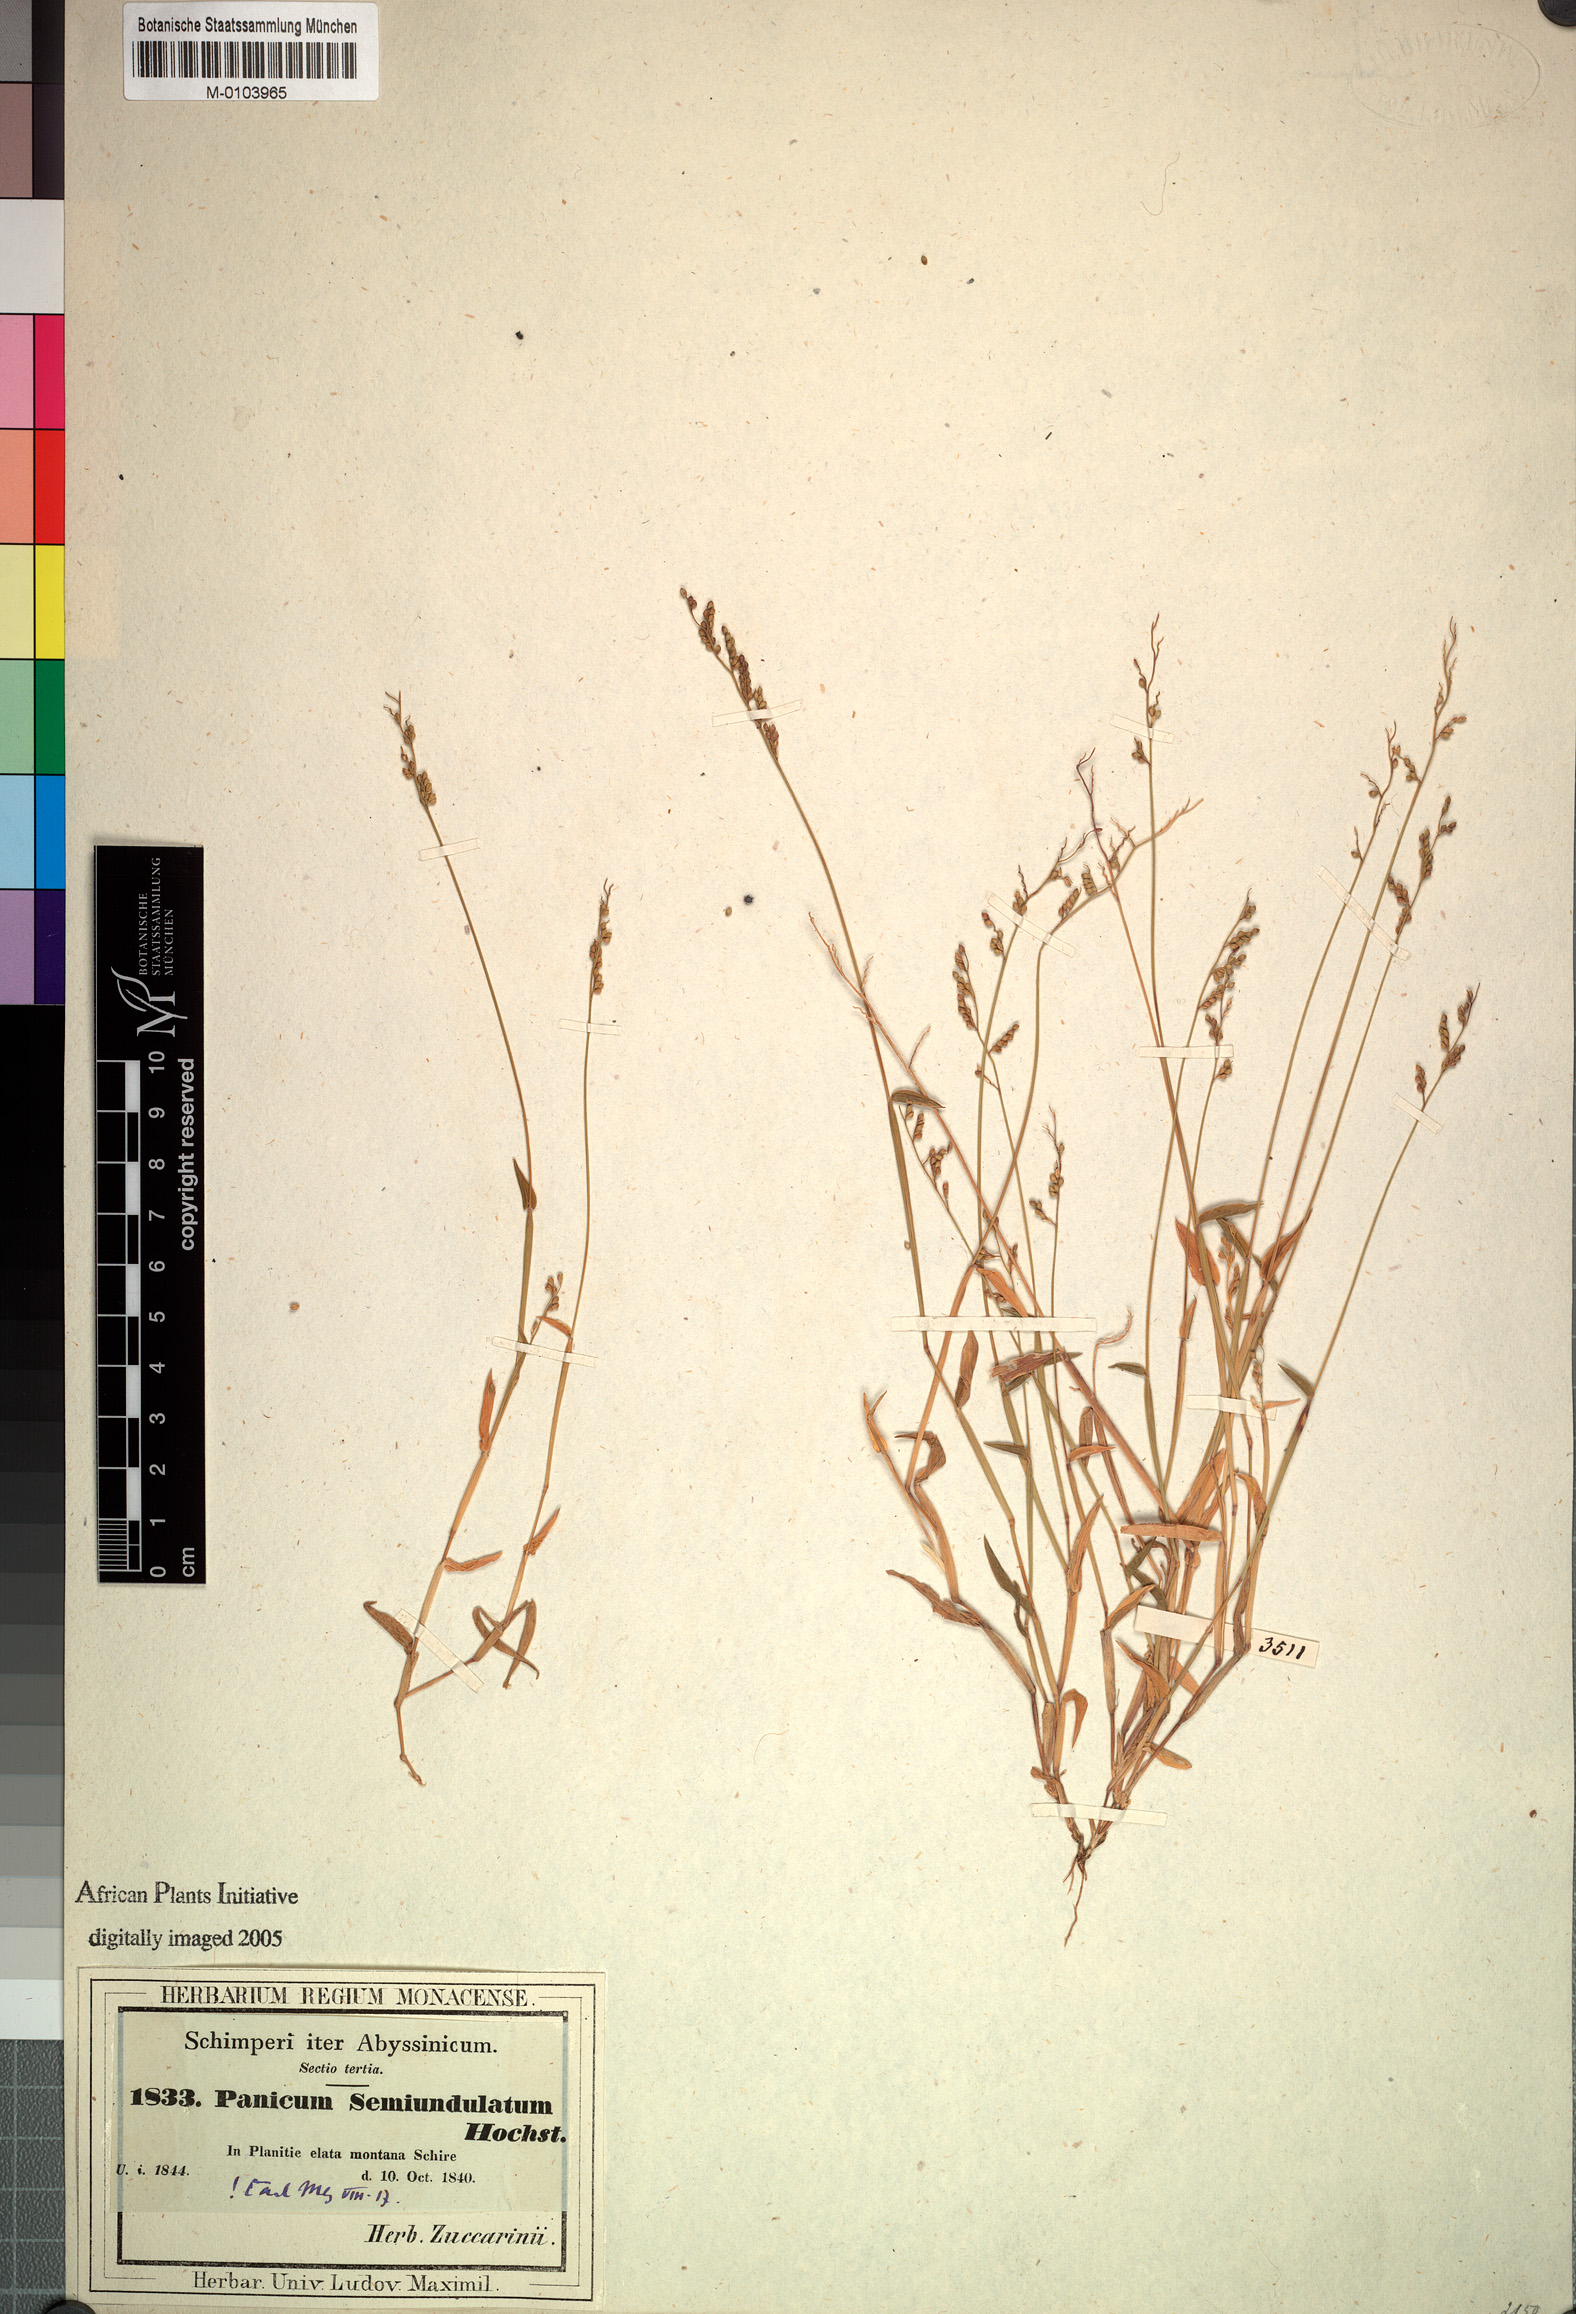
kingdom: Plantae
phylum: Tracheophyta
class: Liliopsida
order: Poales
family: Poaceae
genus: Urochloa
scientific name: Urochloa semiundulata
